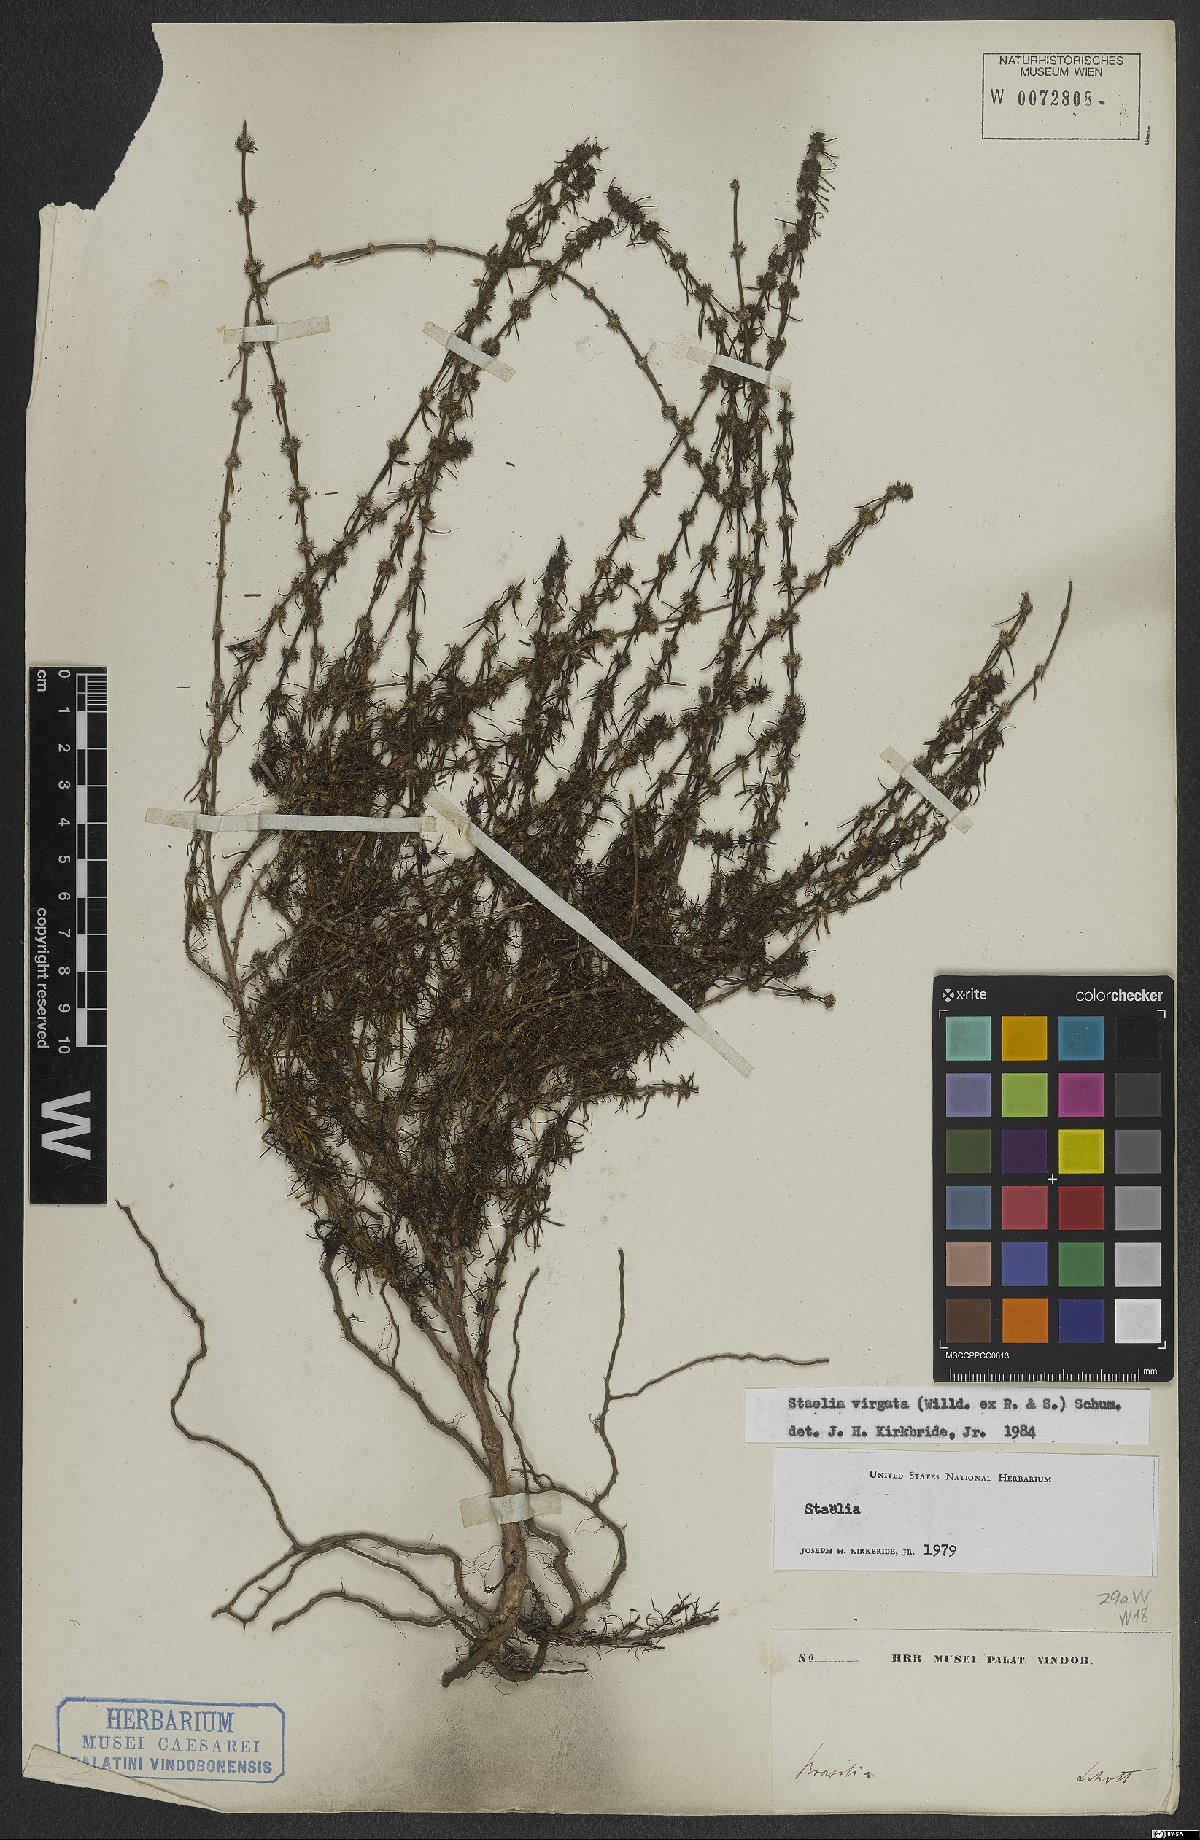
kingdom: Plantae
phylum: Tracheophyta
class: Magnoliopsida
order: Gentianales
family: Rubiaceae
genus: Staelia
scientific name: Staelia virgata
